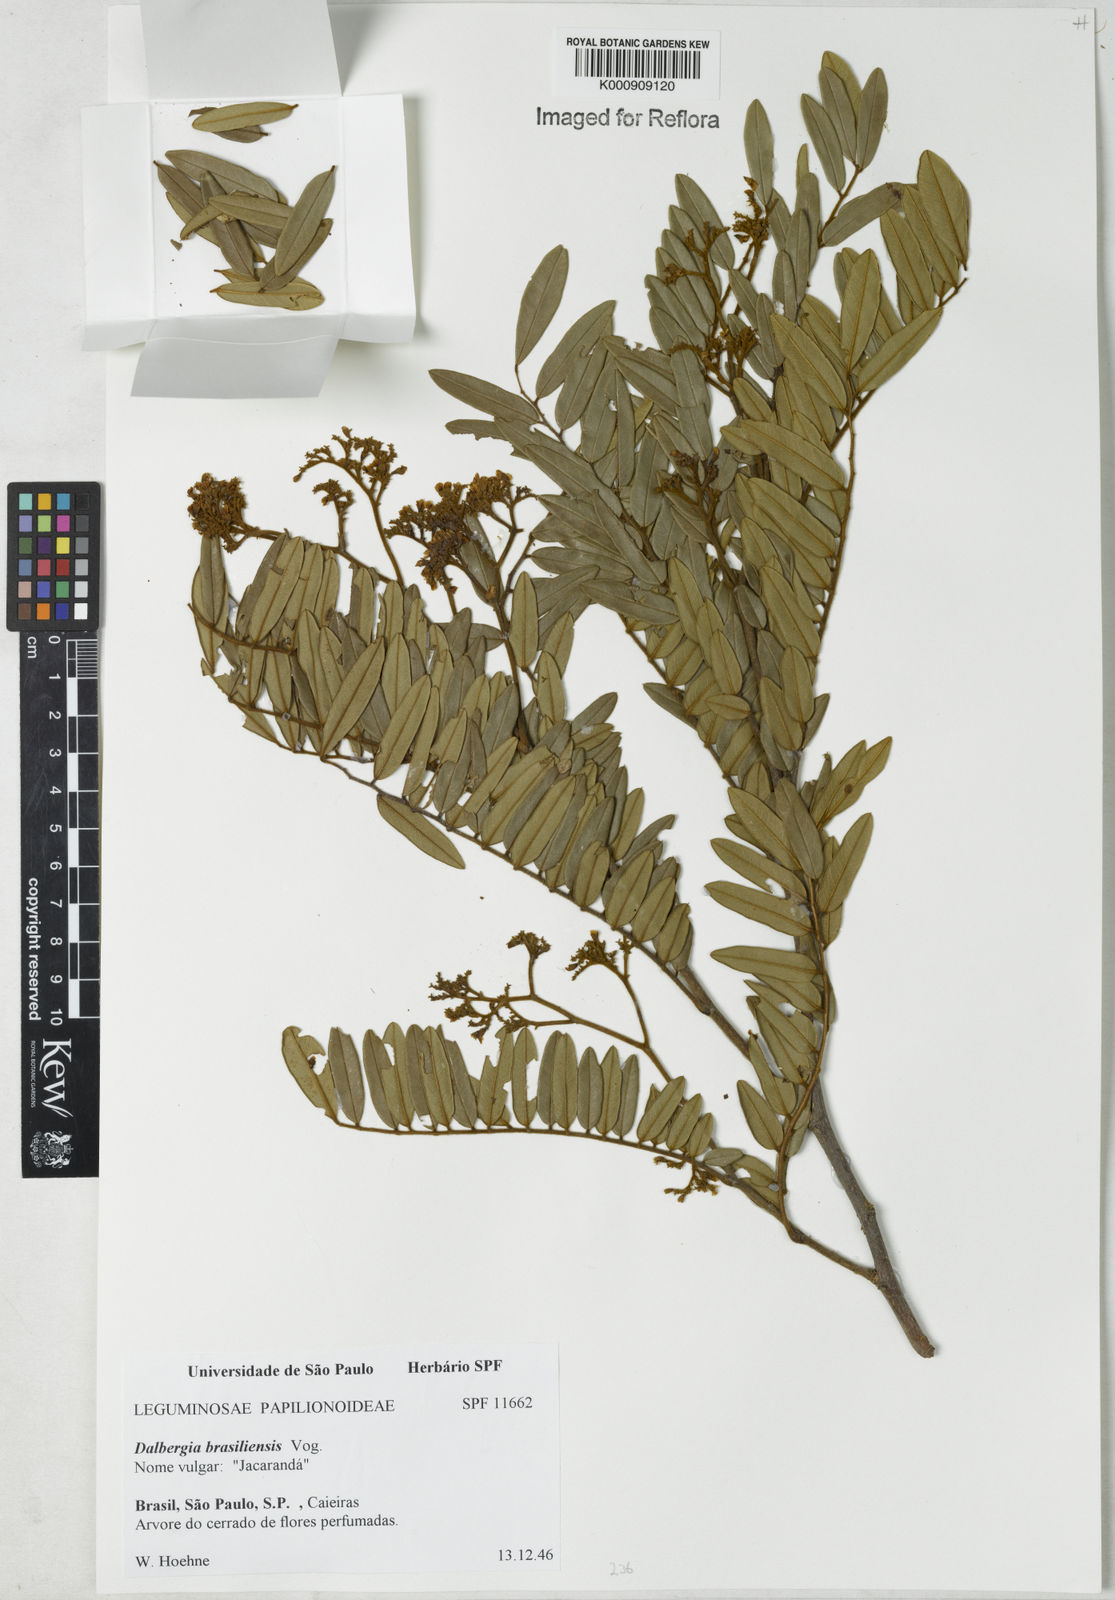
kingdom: Plantae
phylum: Tracheophyta
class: Magnoliopsida
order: Fabales
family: Fabaceae
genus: Dalbergia
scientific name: Dalbergia brasiliensis
